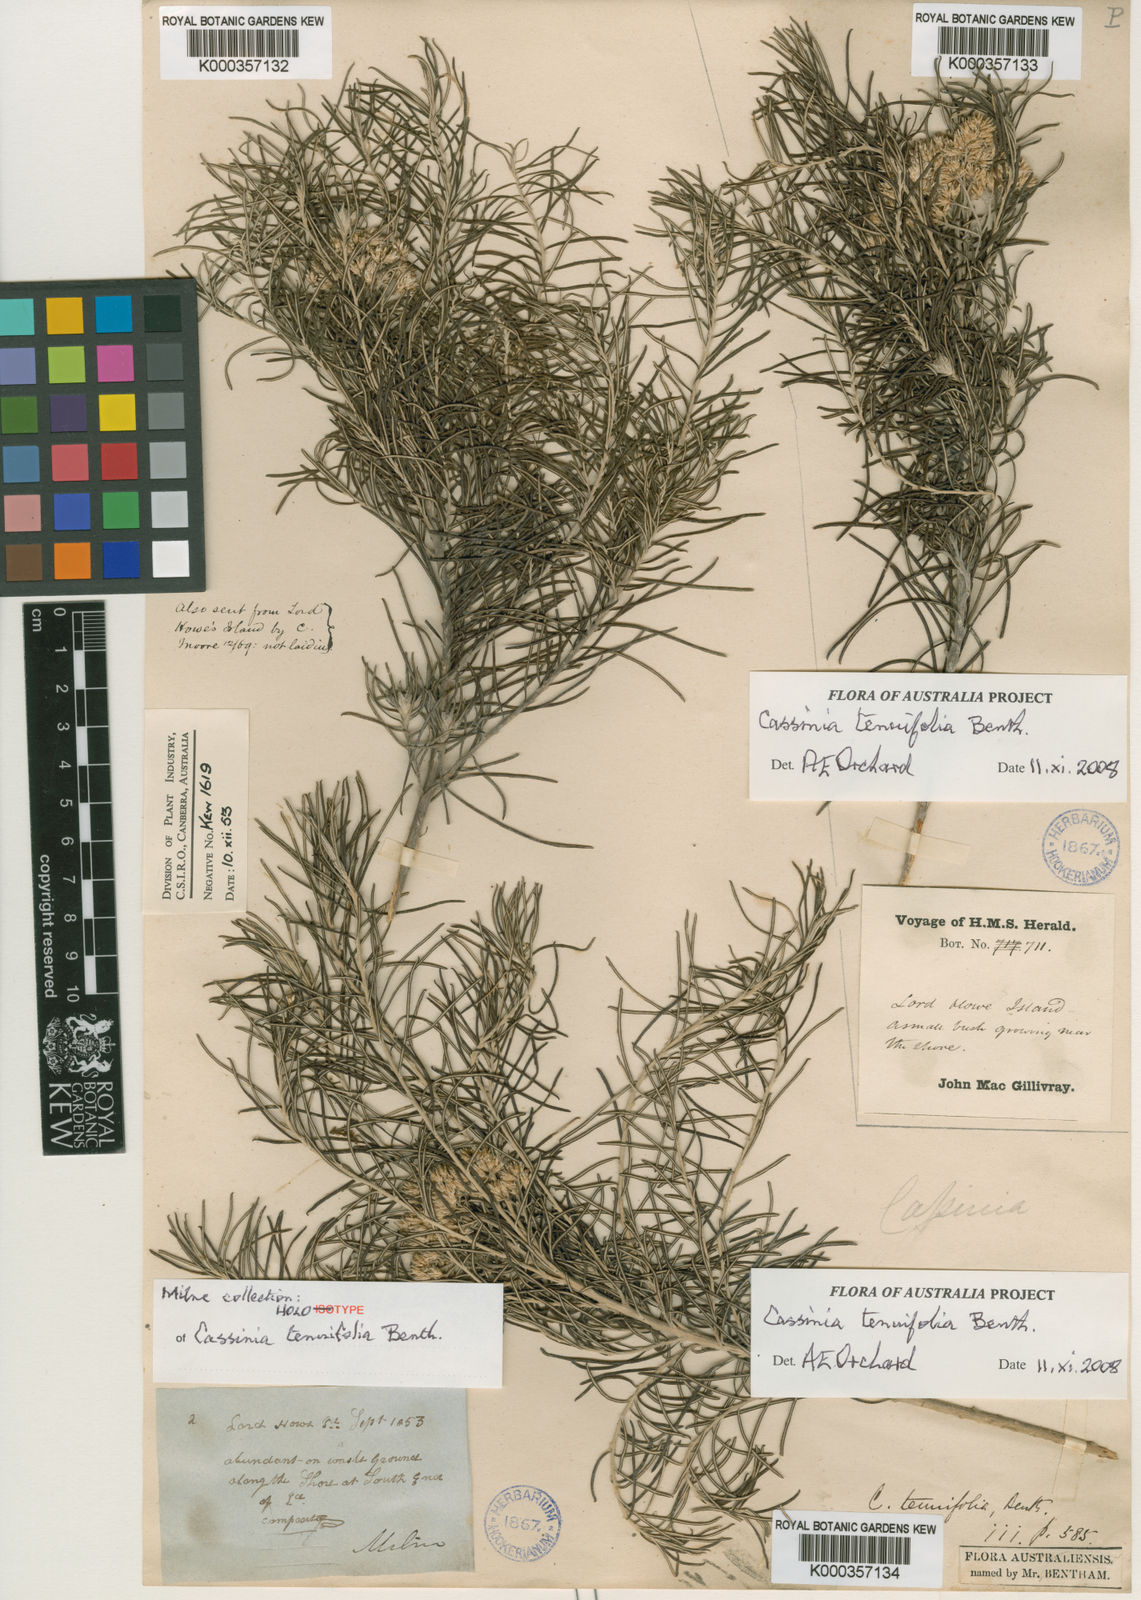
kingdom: Plantae
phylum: Tracheophyta
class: Magnoliopsida
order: Asterales
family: Asteraceae
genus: Cassinia
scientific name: Cassinia tenuifolia
